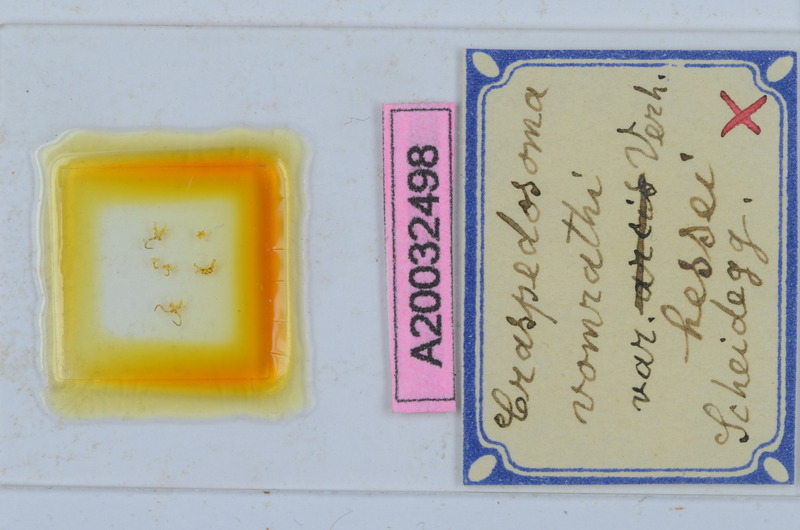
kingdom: Animalia
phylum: Arthropoda
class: Diplopoda
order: Chordeumatida
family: Craspedosomatidae
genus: Craspedosoma
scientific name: Craspedosoma vomrathi
